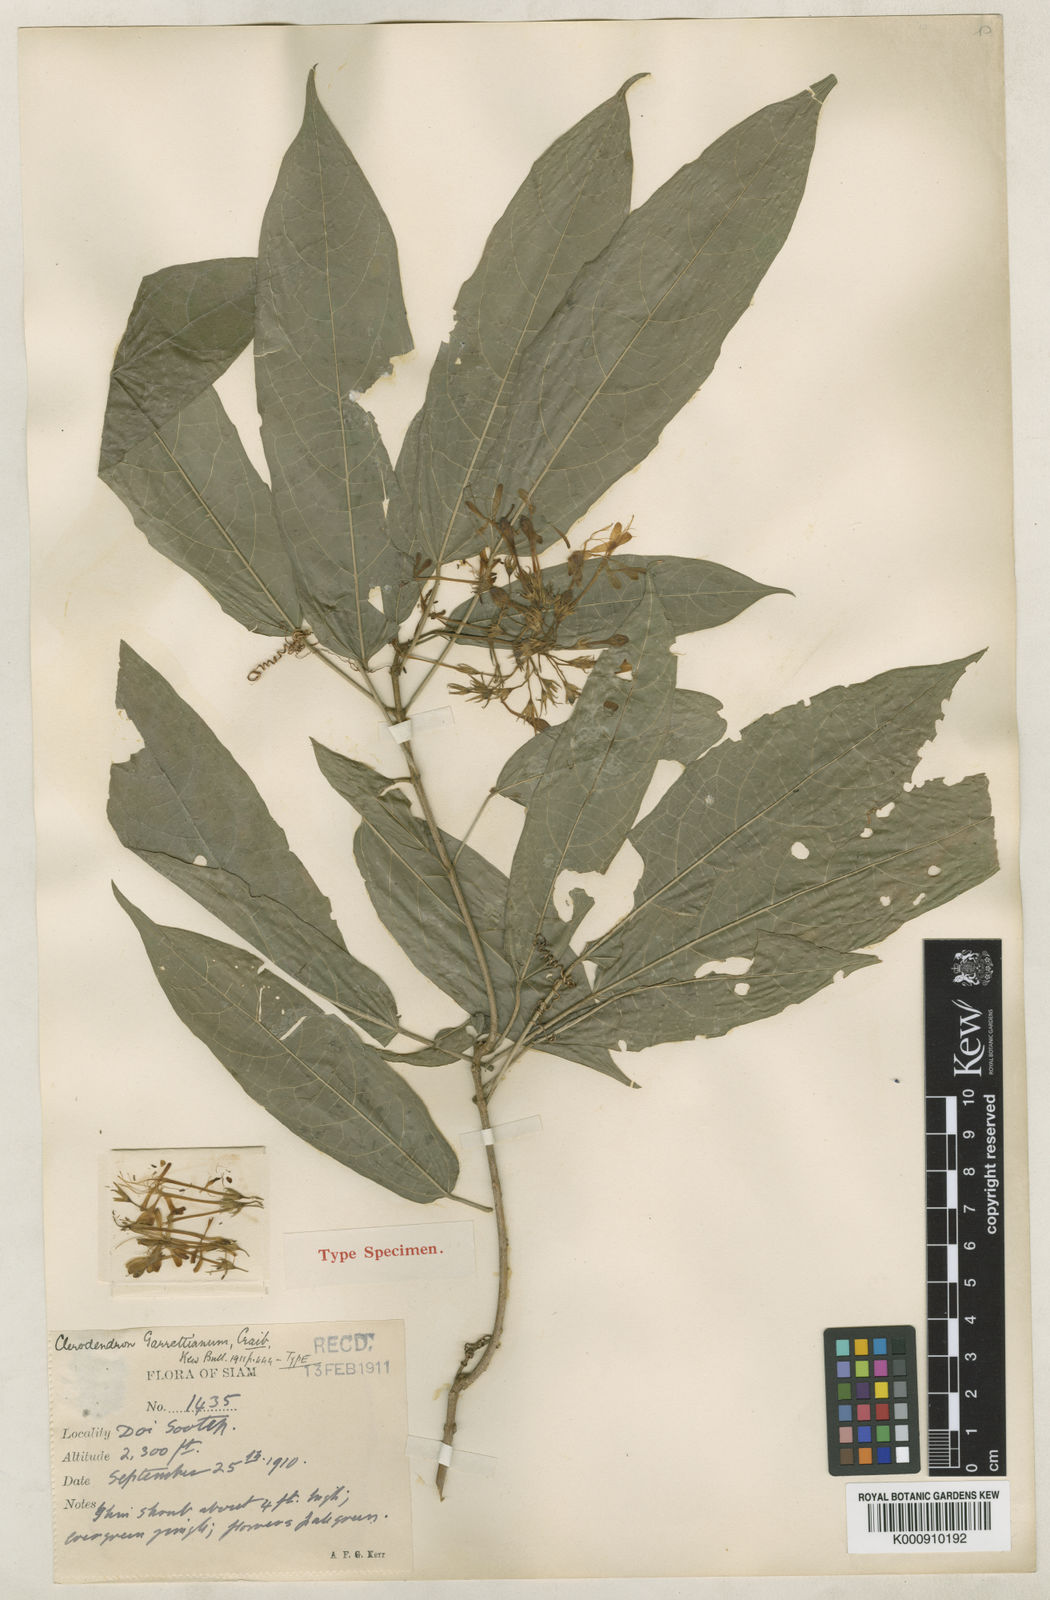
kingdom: Plantae
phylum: Tracheophyta
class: Magnoliopsida
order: Lamiales
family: Lamiaceae
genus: Clerodendrum
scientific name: Clerodendrum garrettianum
